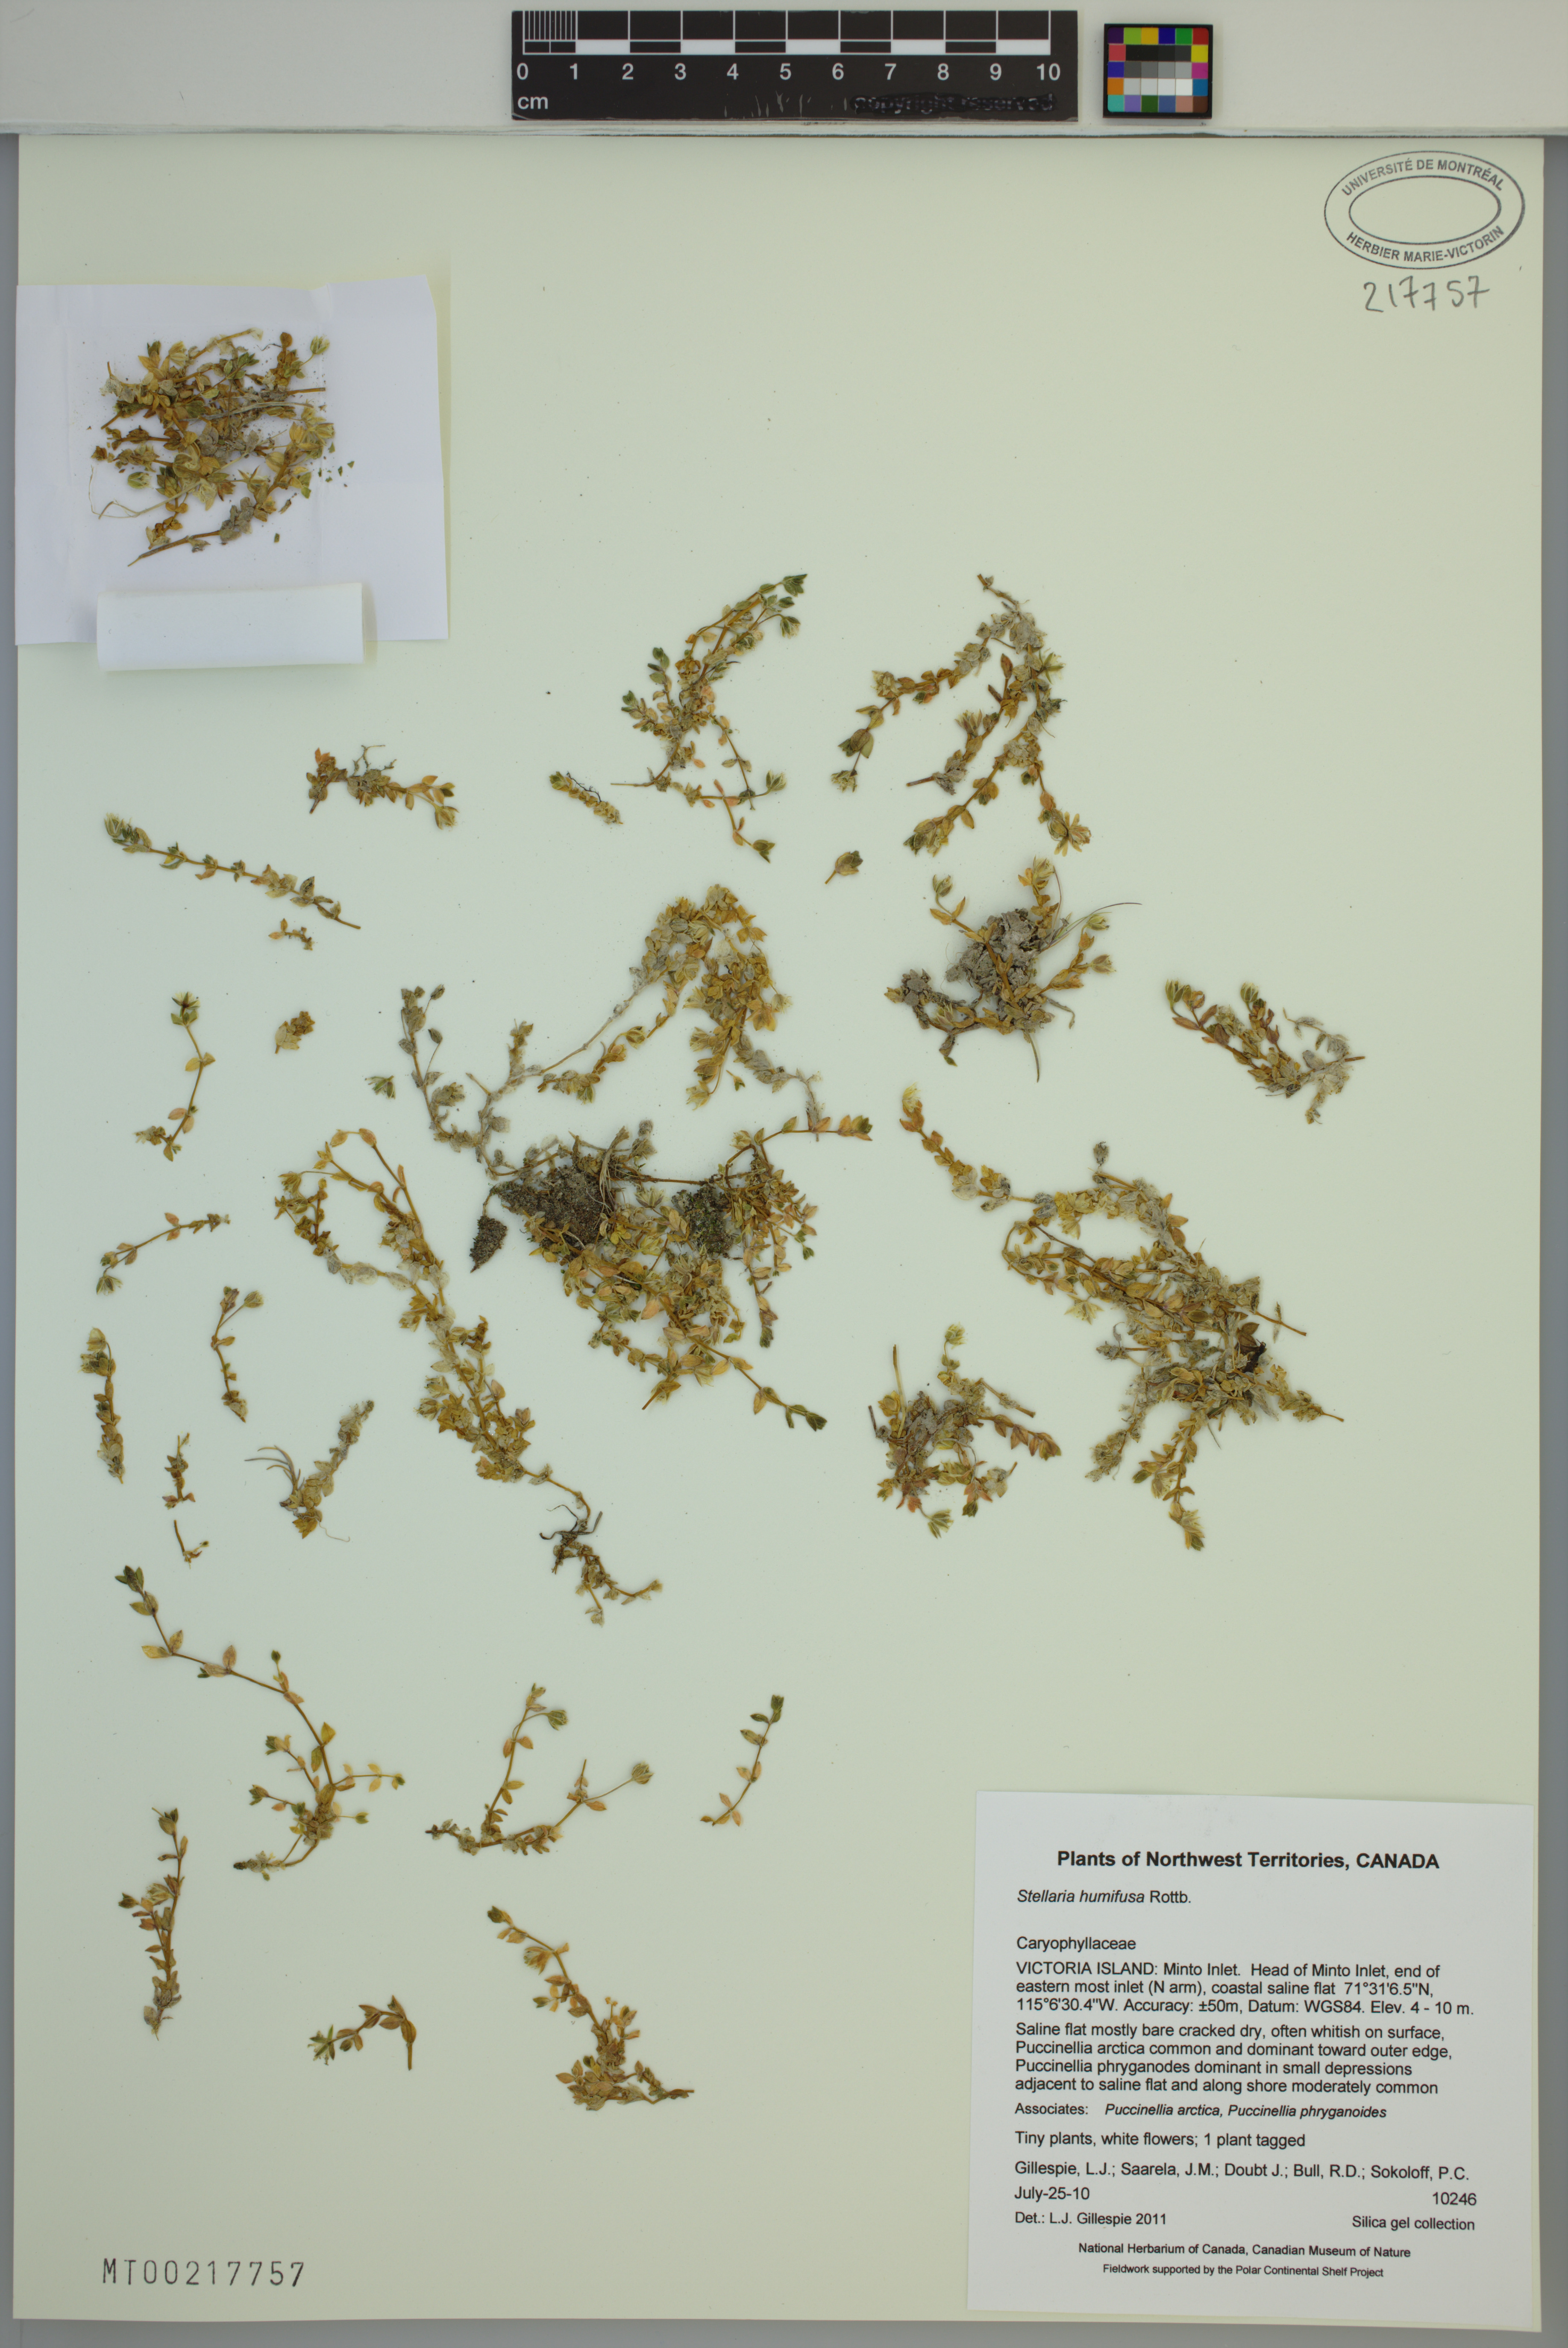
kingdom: Plantae
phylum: Tracheophyta
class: Magnoliopsida
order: Caryophyllales
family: Caryophyllaceae
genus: Stellaria
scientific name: Stellaria humifusa
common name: Creeping starwort
